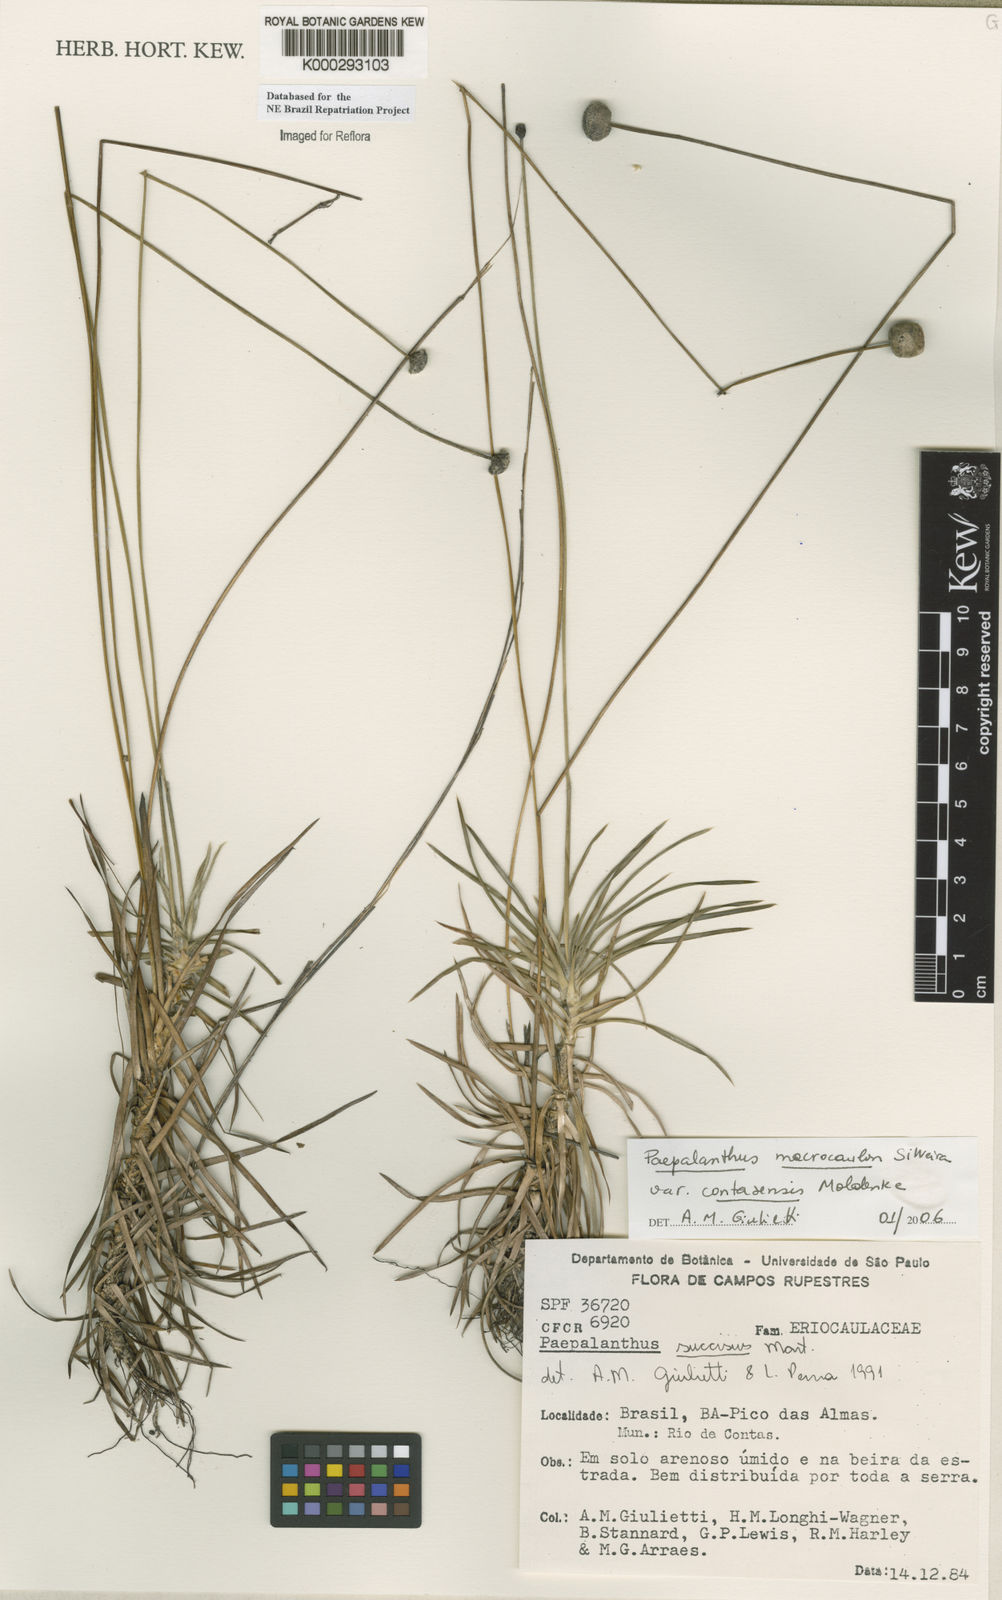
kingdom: Plantae
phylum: Tracheophyta
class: Liliopsida
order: Poales
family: Eriocaulaceae
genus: Paepalanthus
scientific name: Paepalanthus
